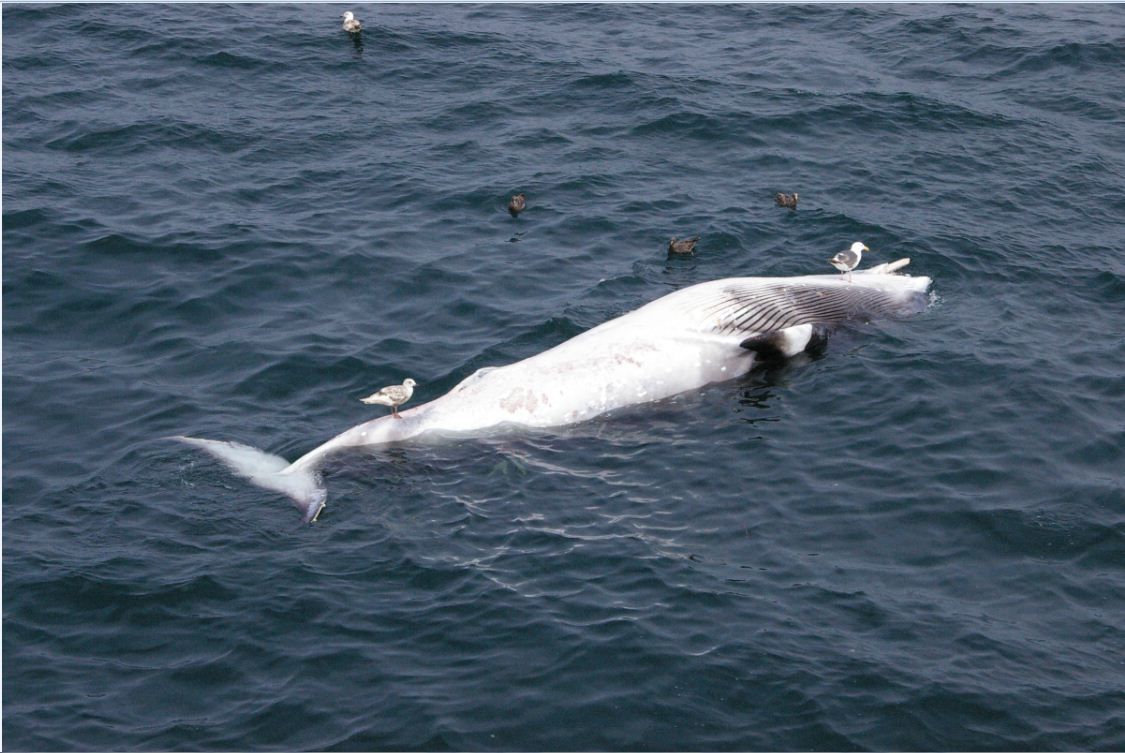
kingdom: Animalia
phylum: Chordata
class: Mammalia
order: Cetacea
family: Balaenopteridae
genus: Balaenoptera
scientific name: Balaenoptera acutorostrata
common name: Minke whale
